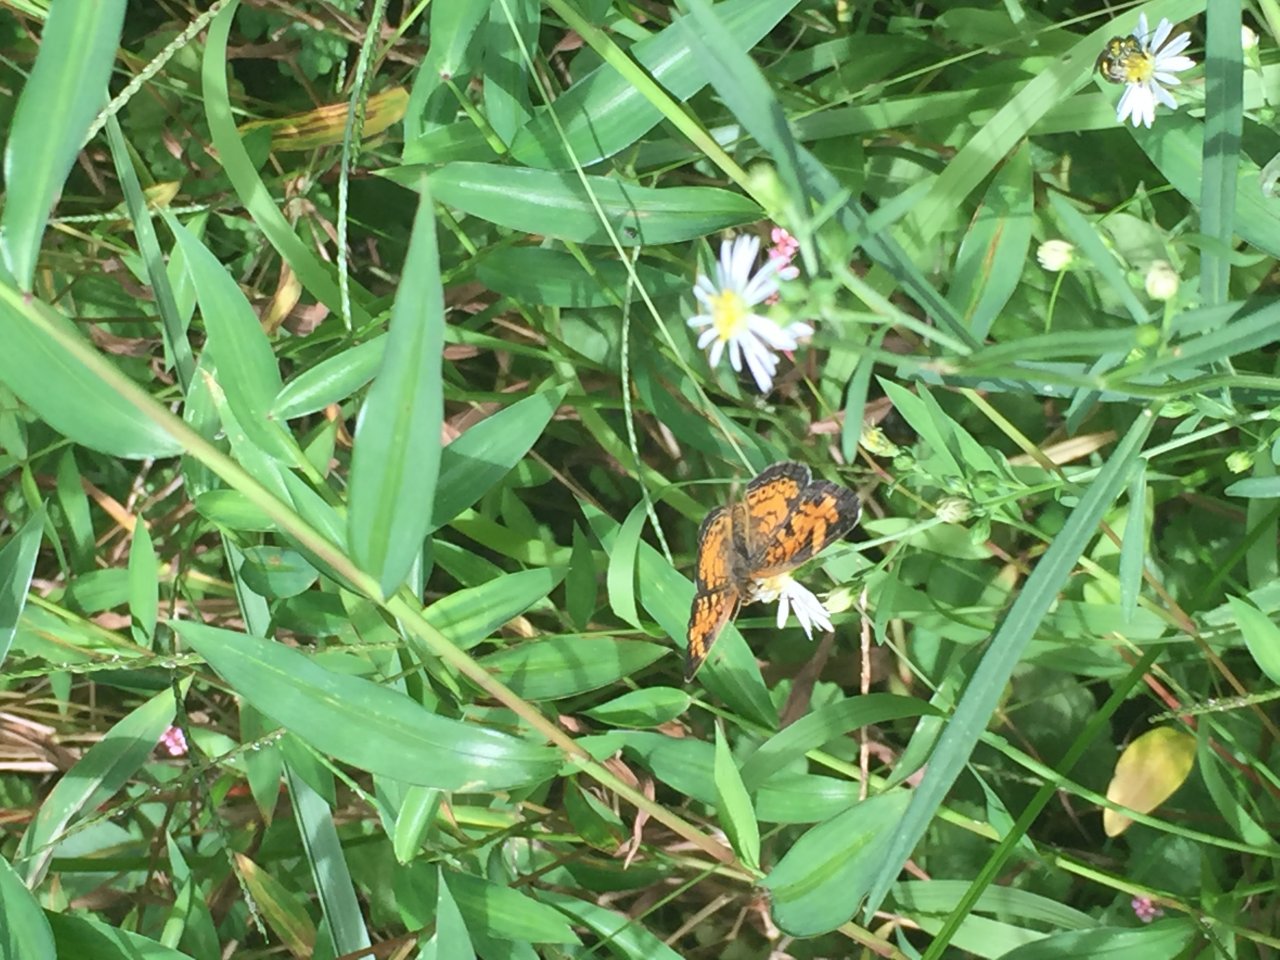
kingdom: Animalia
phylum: Arthropoda
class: Insecta
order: Lepidoptera
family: Nymphalidae
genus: Phyciodes
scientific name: Phyciodes tharos
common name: Pearl Crescent
